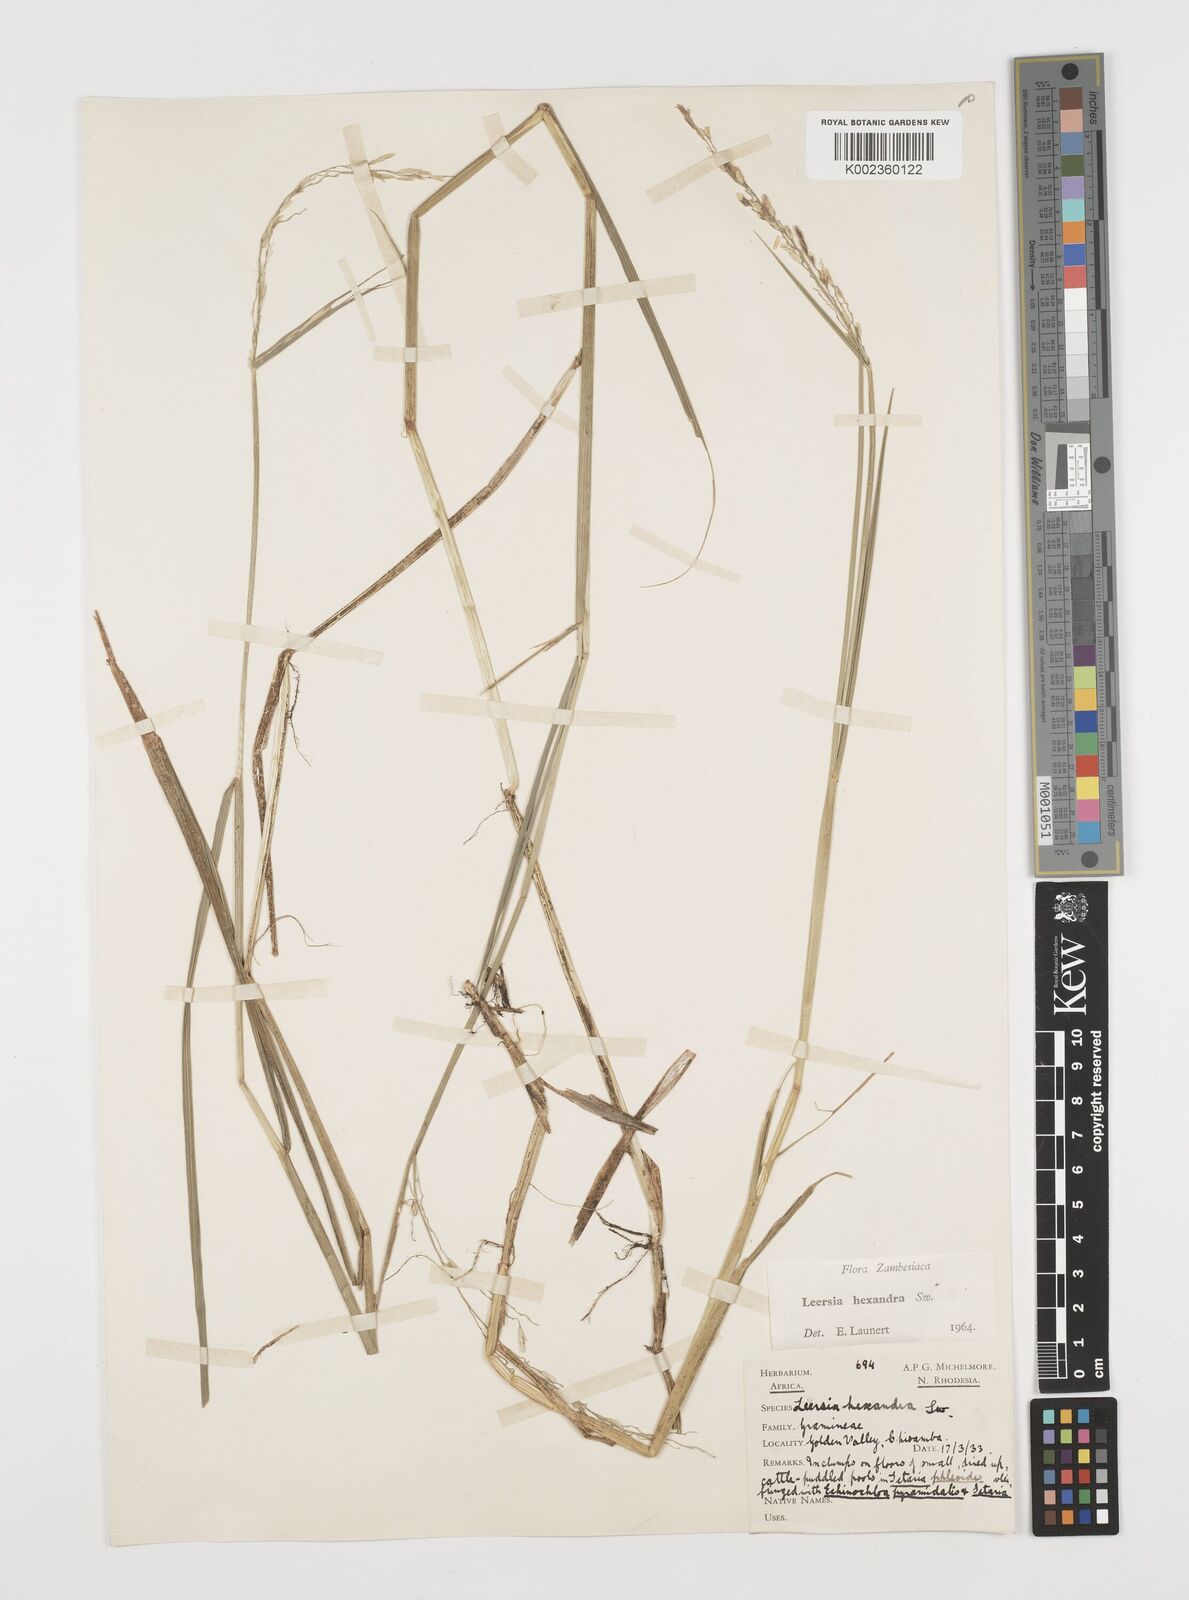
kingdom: Plantae
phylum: Tracheophyta
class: Liliopsida
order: Poales
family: Poaceae
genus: Leersia
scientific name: Leersia hexandra
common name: Southern cut grass
